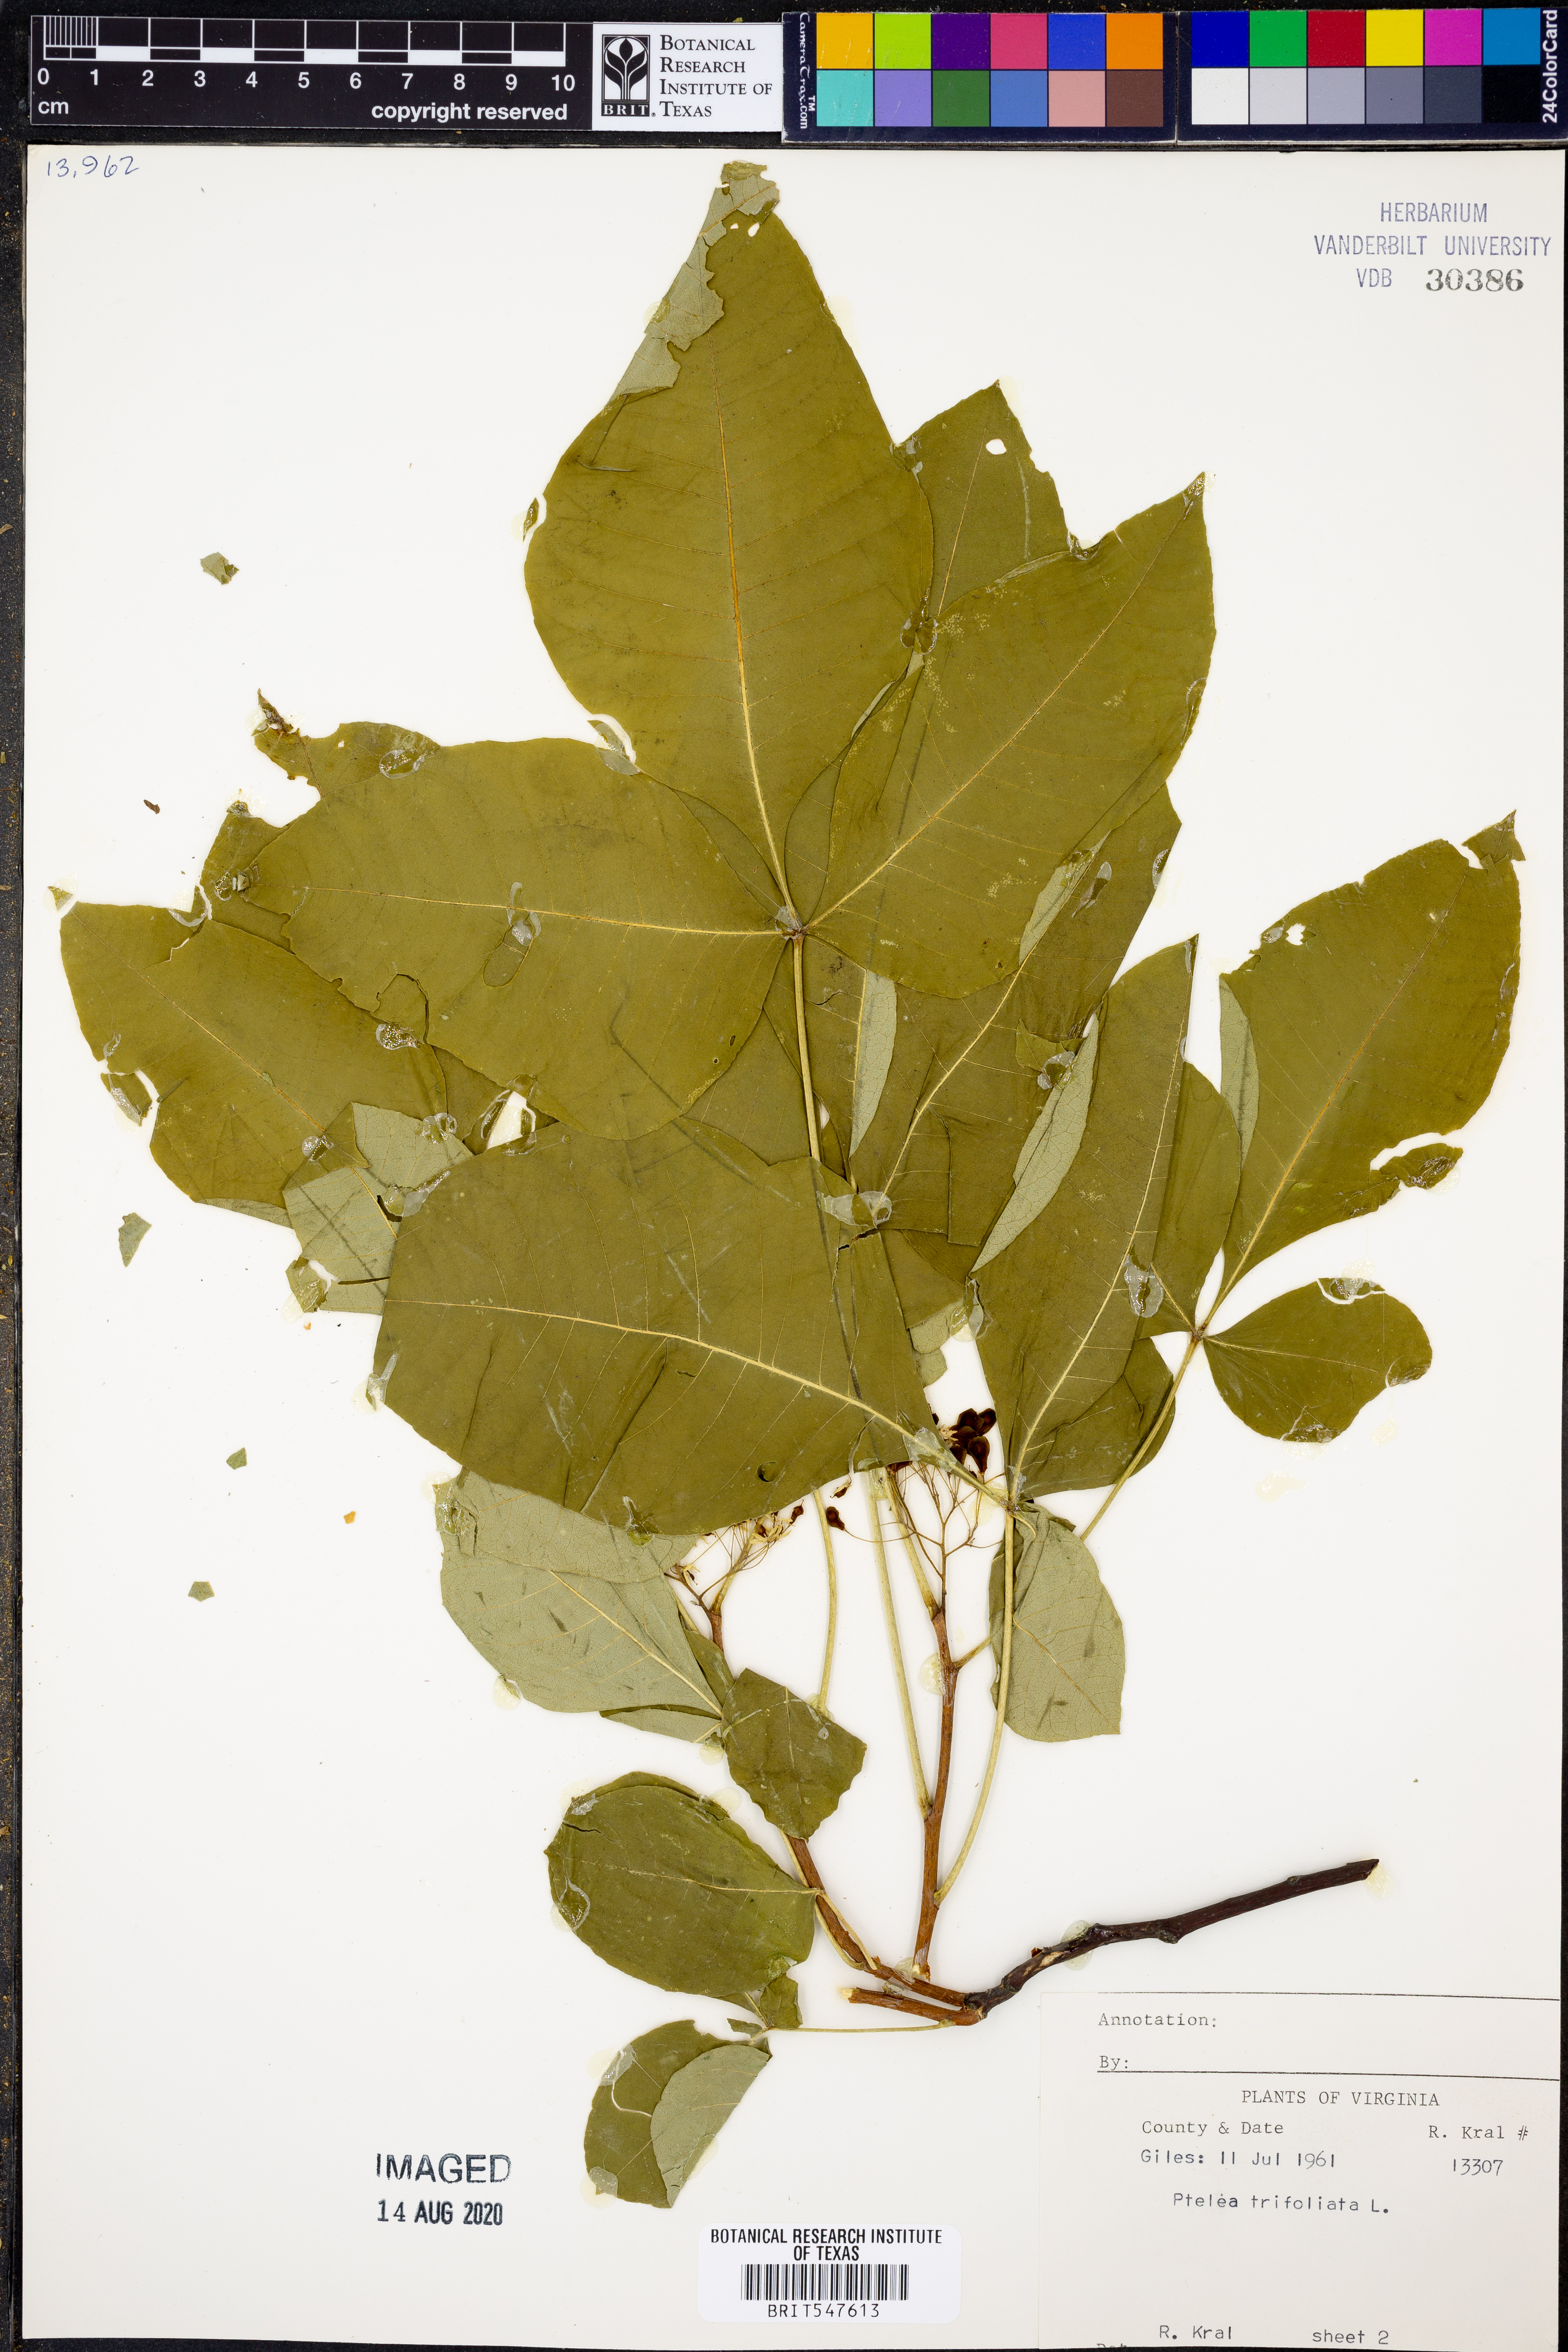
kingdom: Plantae
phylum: Tracheophyta
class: Magnoliopsida
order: Sapindales
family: Rutaceae
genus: Ptelea
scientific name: Ptelea trifoliata
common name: Common hop-tree
